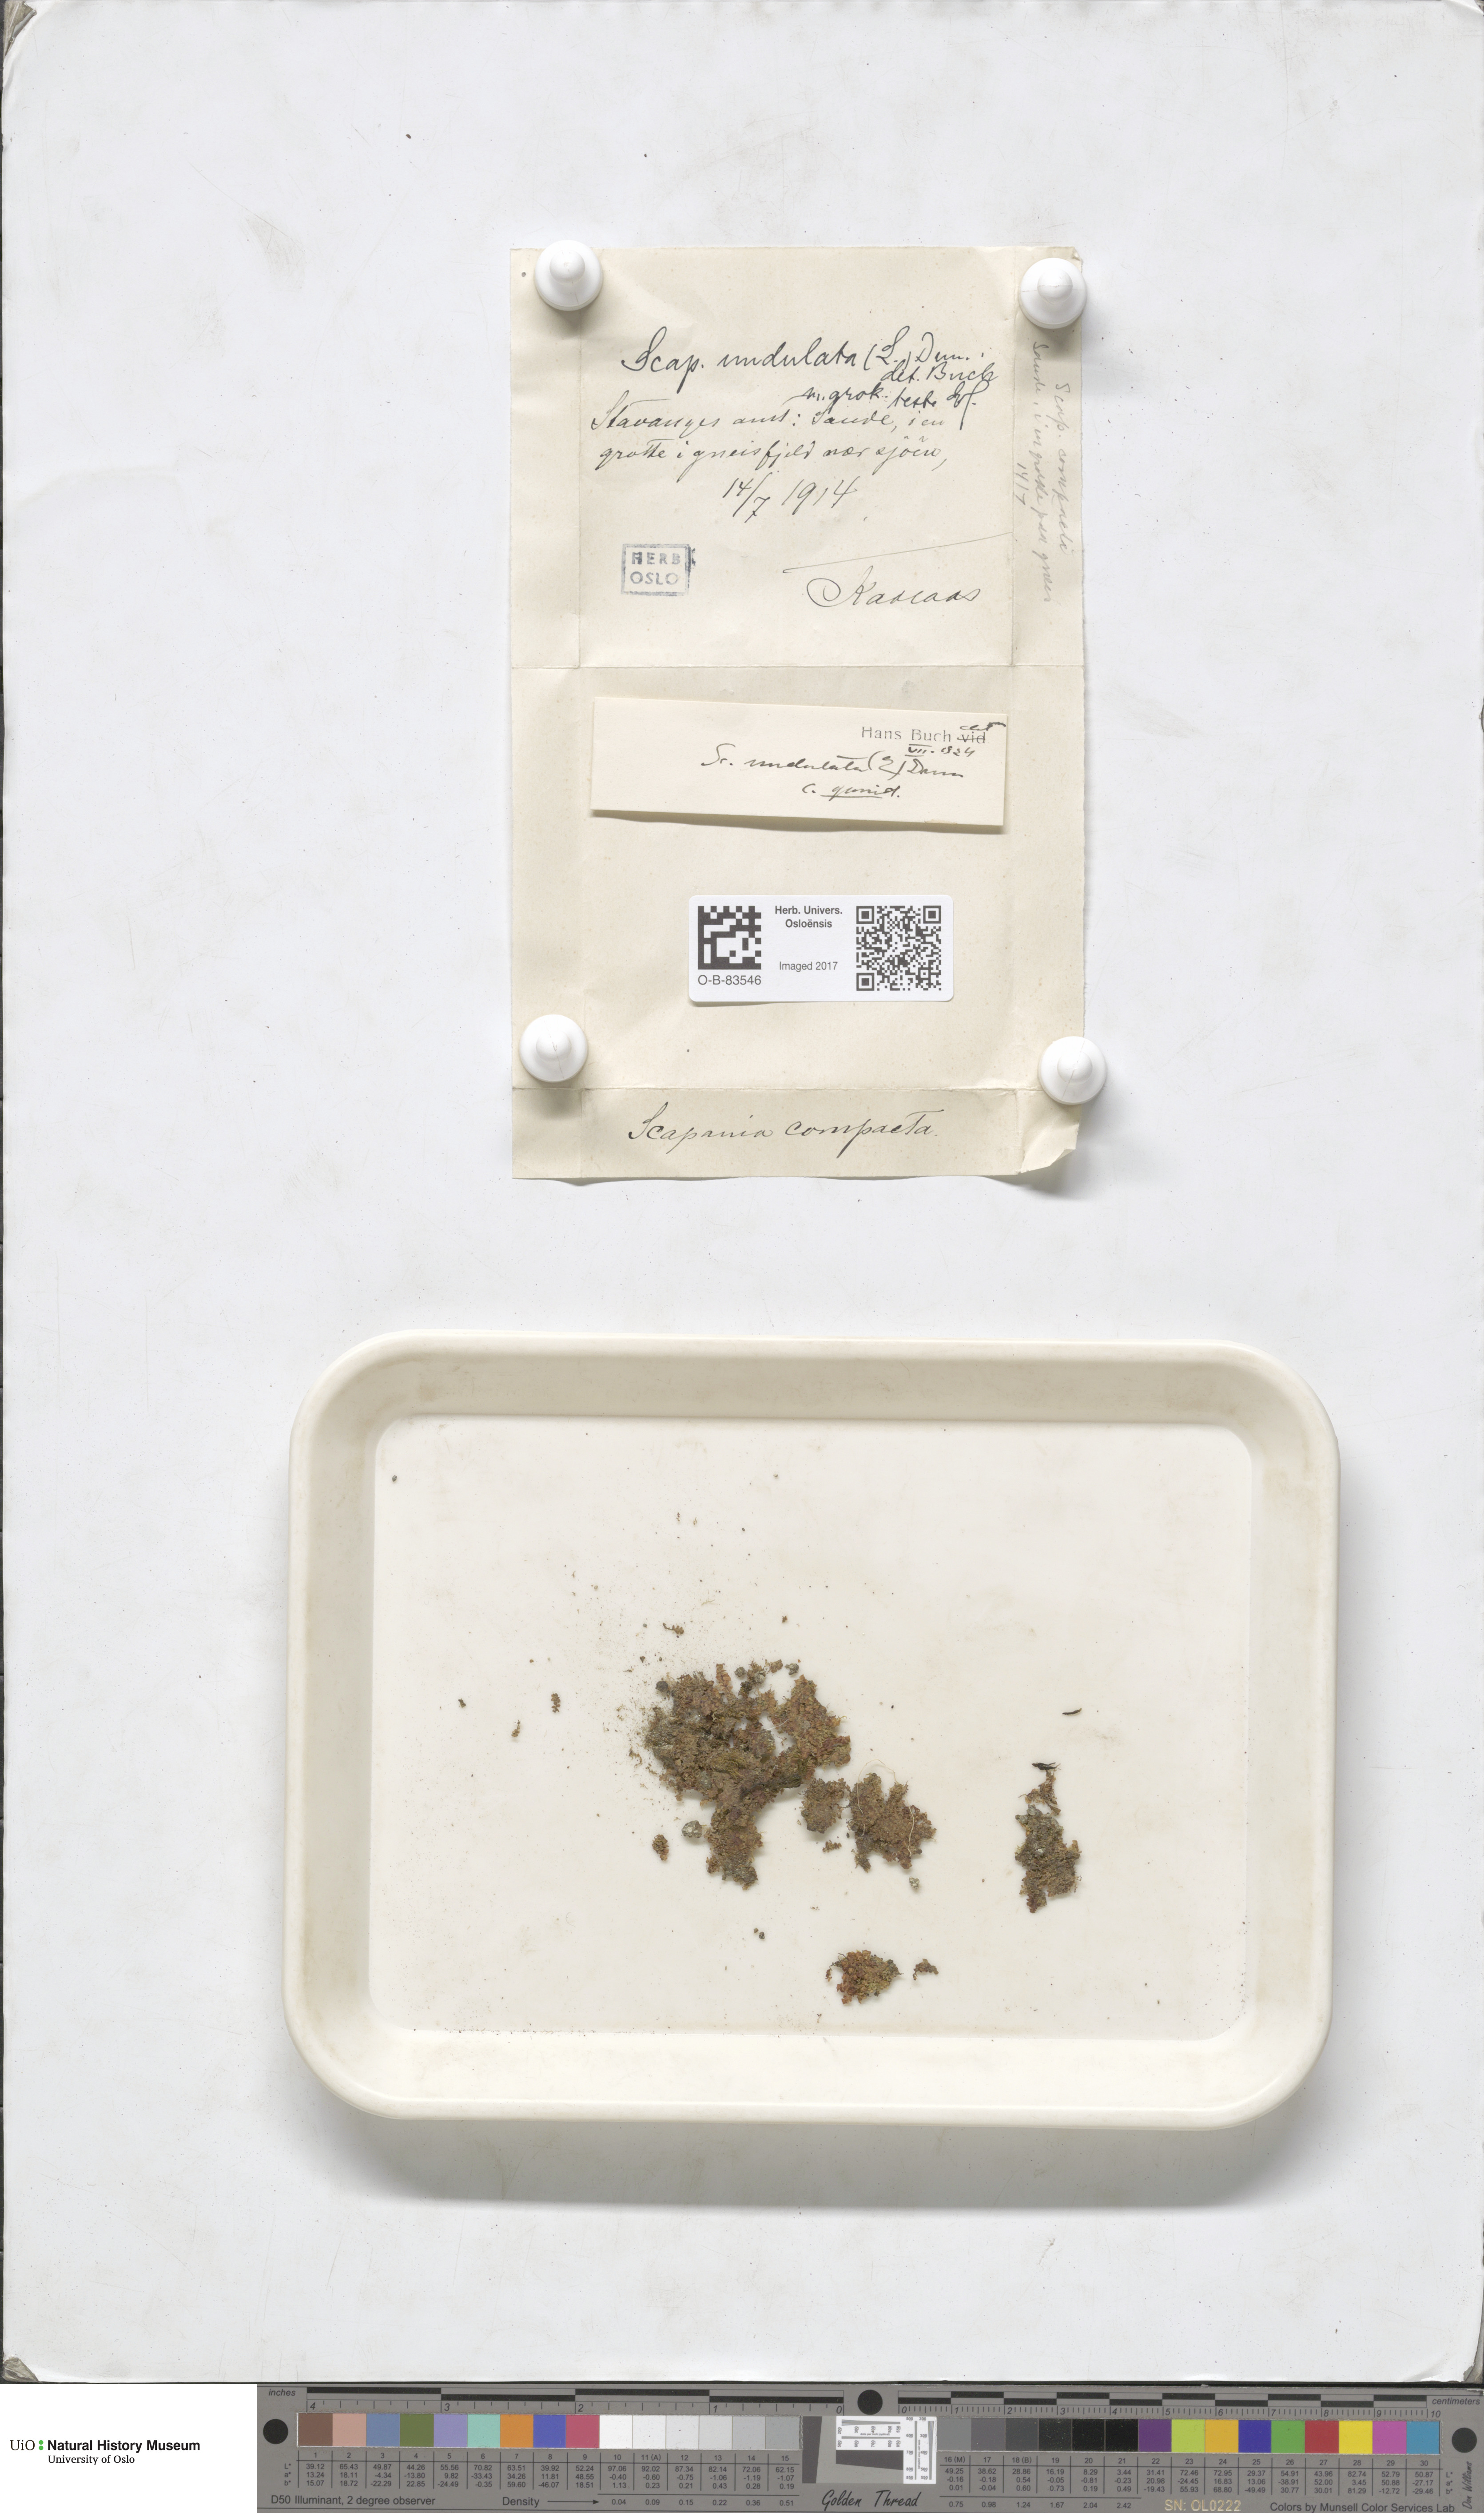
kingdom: Plantae
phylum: Marchantiophyta
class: Jungermanniopsida
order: Jungermanniales
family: Scapaniaceae
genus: Scapania
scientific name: Scapania undulata
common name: Water earwort
